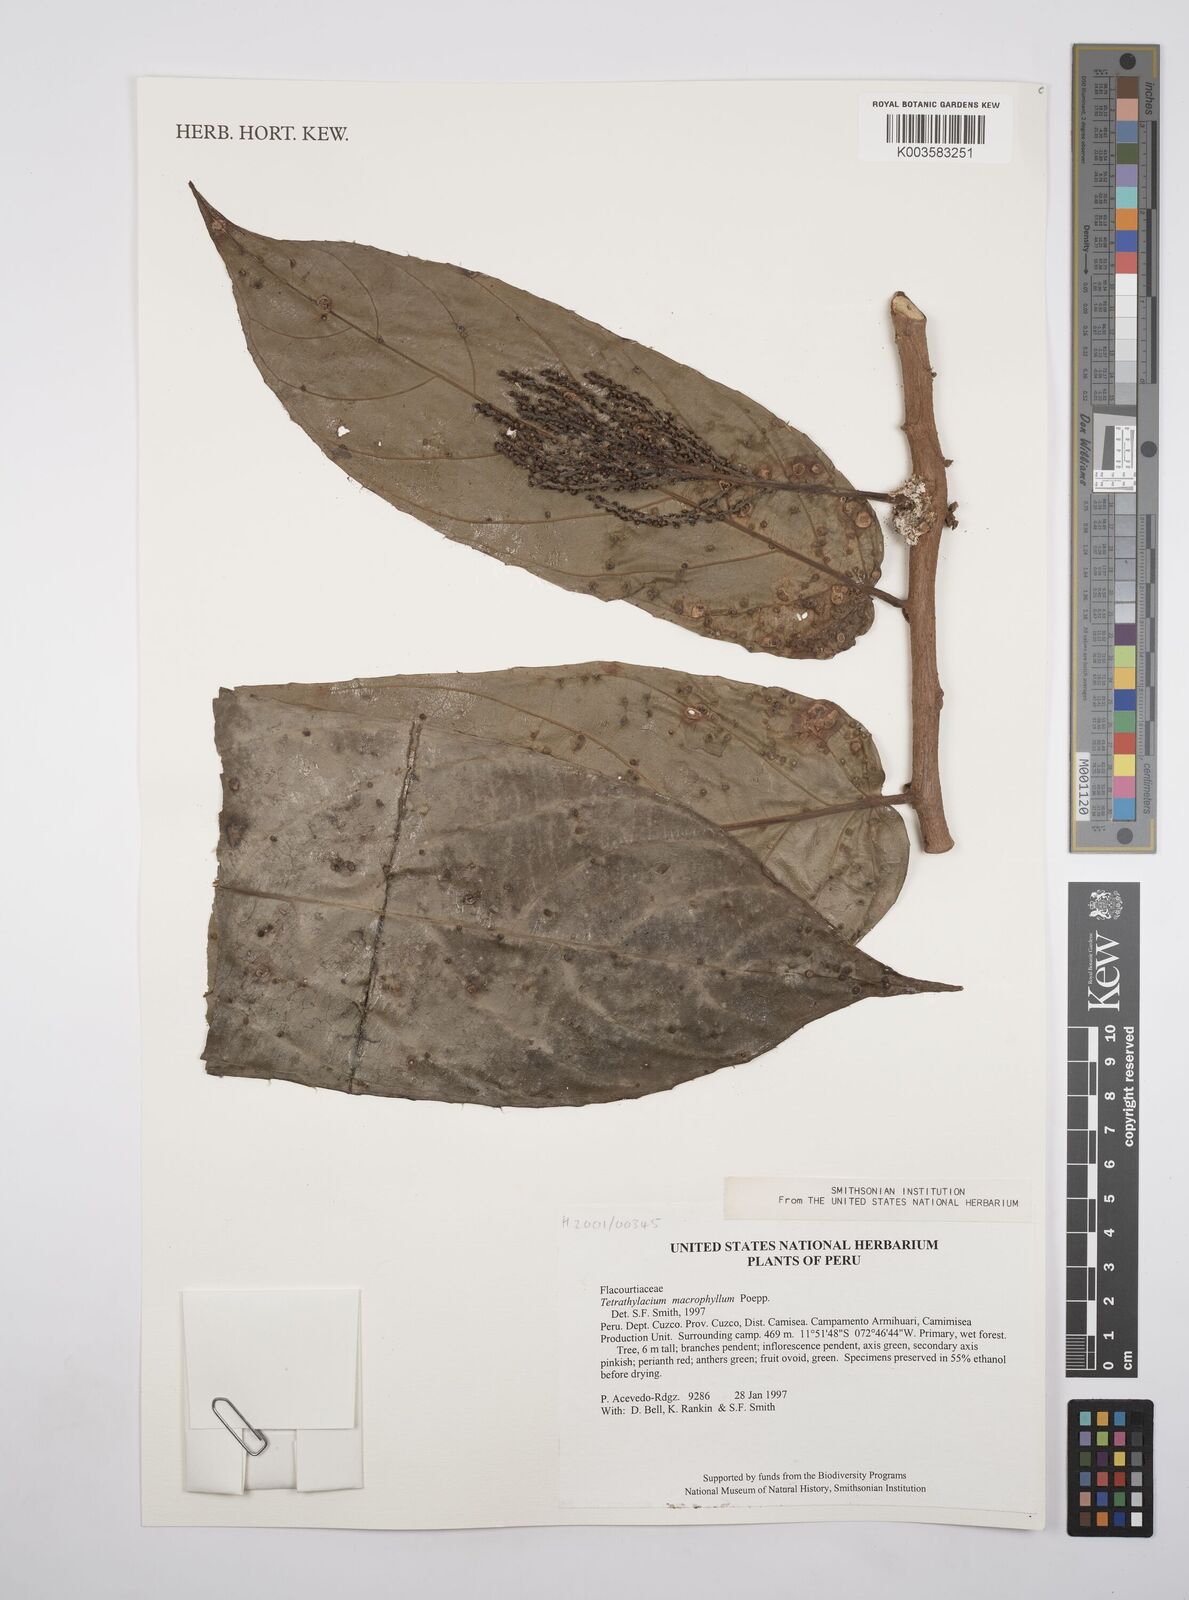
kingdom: Plantae
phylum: Tracheophyta
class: Magnoliopsida
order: Malpighiales
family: Salicaceae
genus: Tetrathylacium
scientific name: Tetrathylacium macrophyllum
